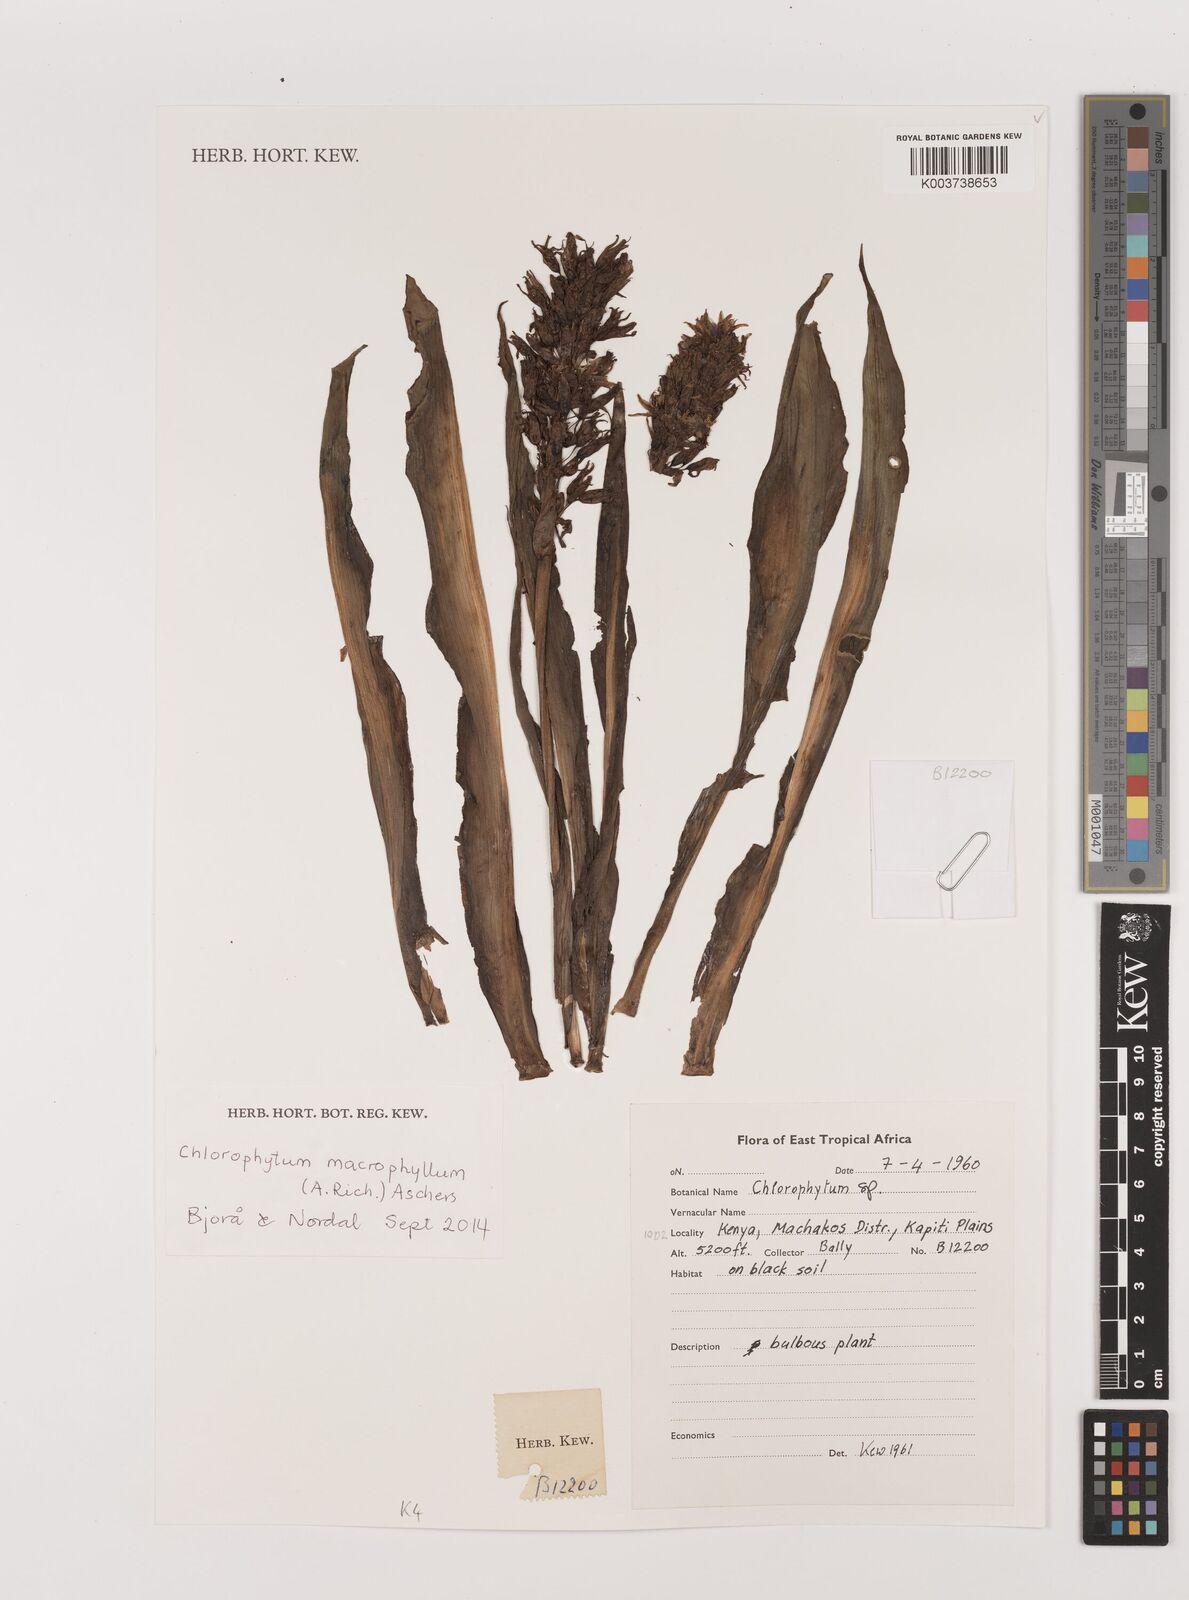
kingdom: Plantae
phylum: Tracheophyta
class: Liliopsida
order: Asparagales
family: Asparagaceae
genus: Chlorophytum
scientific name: Chlorophytum macrophyllum
